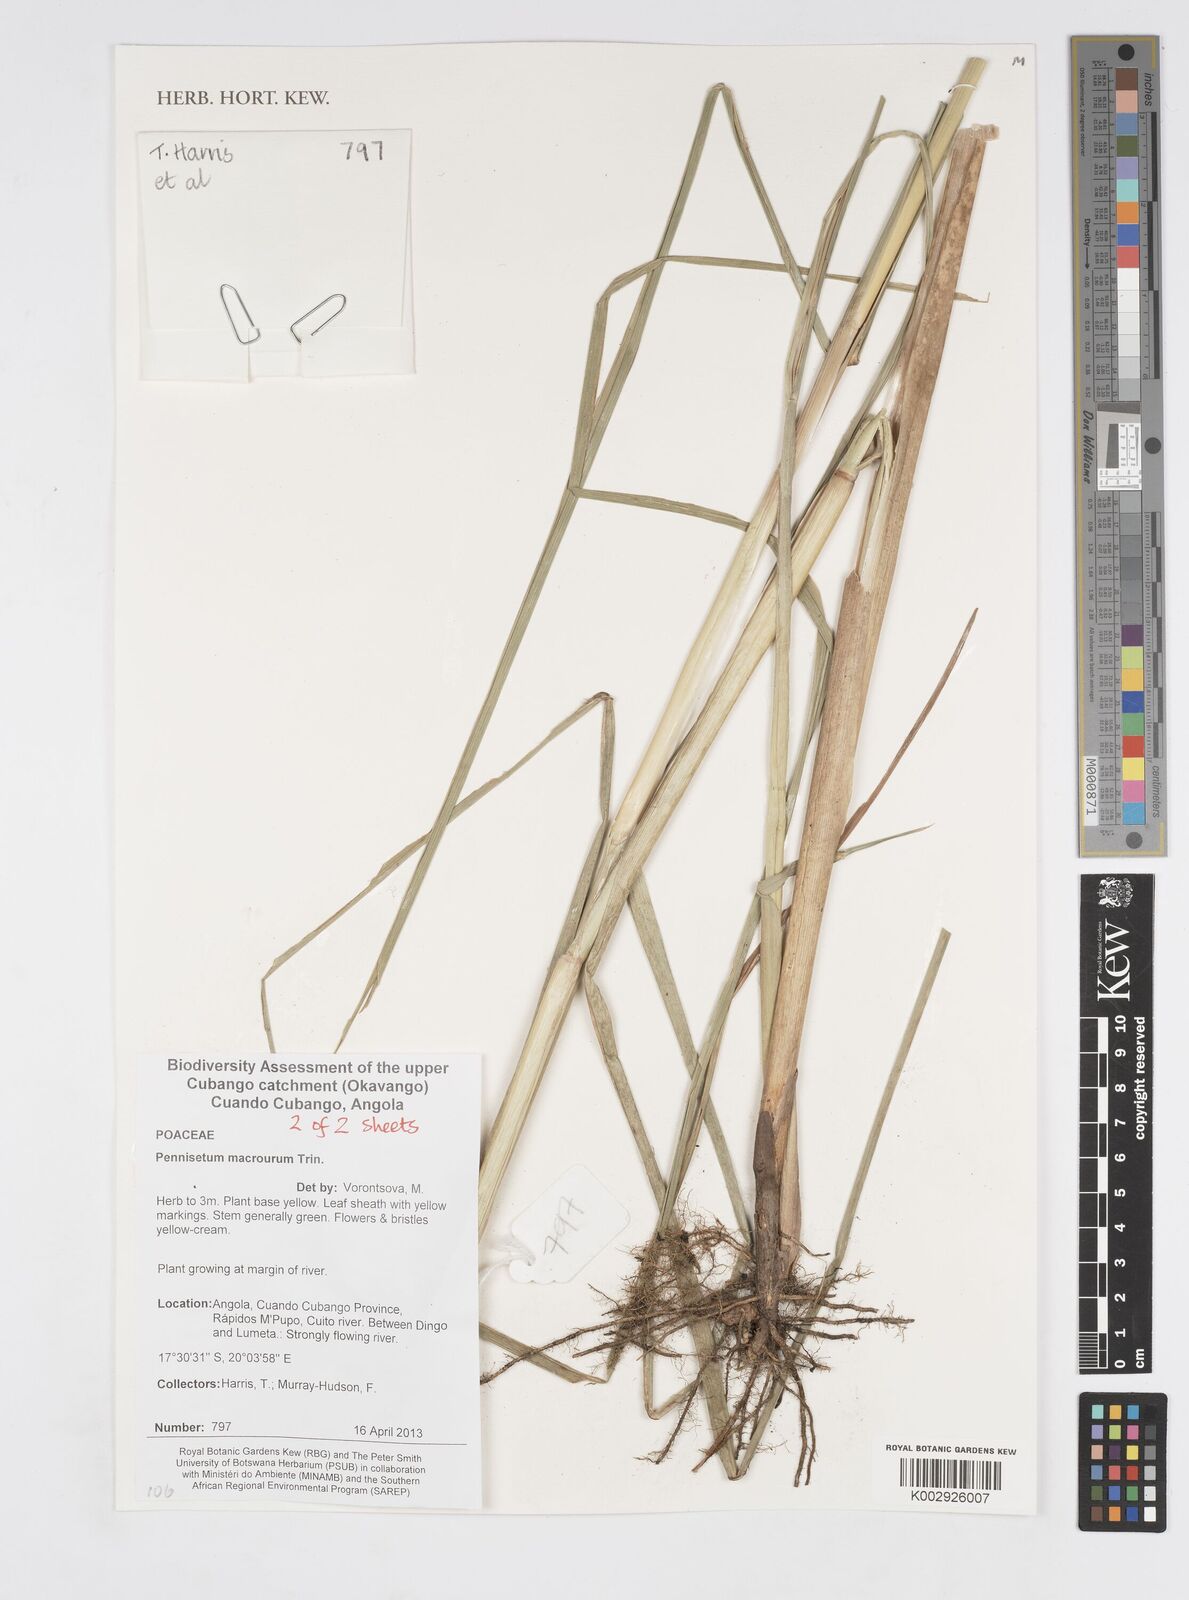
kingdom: Plantae
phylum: Tracheophyta
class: Liliopsida
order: Poales
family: Poaceae
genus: Cenchrus
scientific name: Cenchrus caudatus
